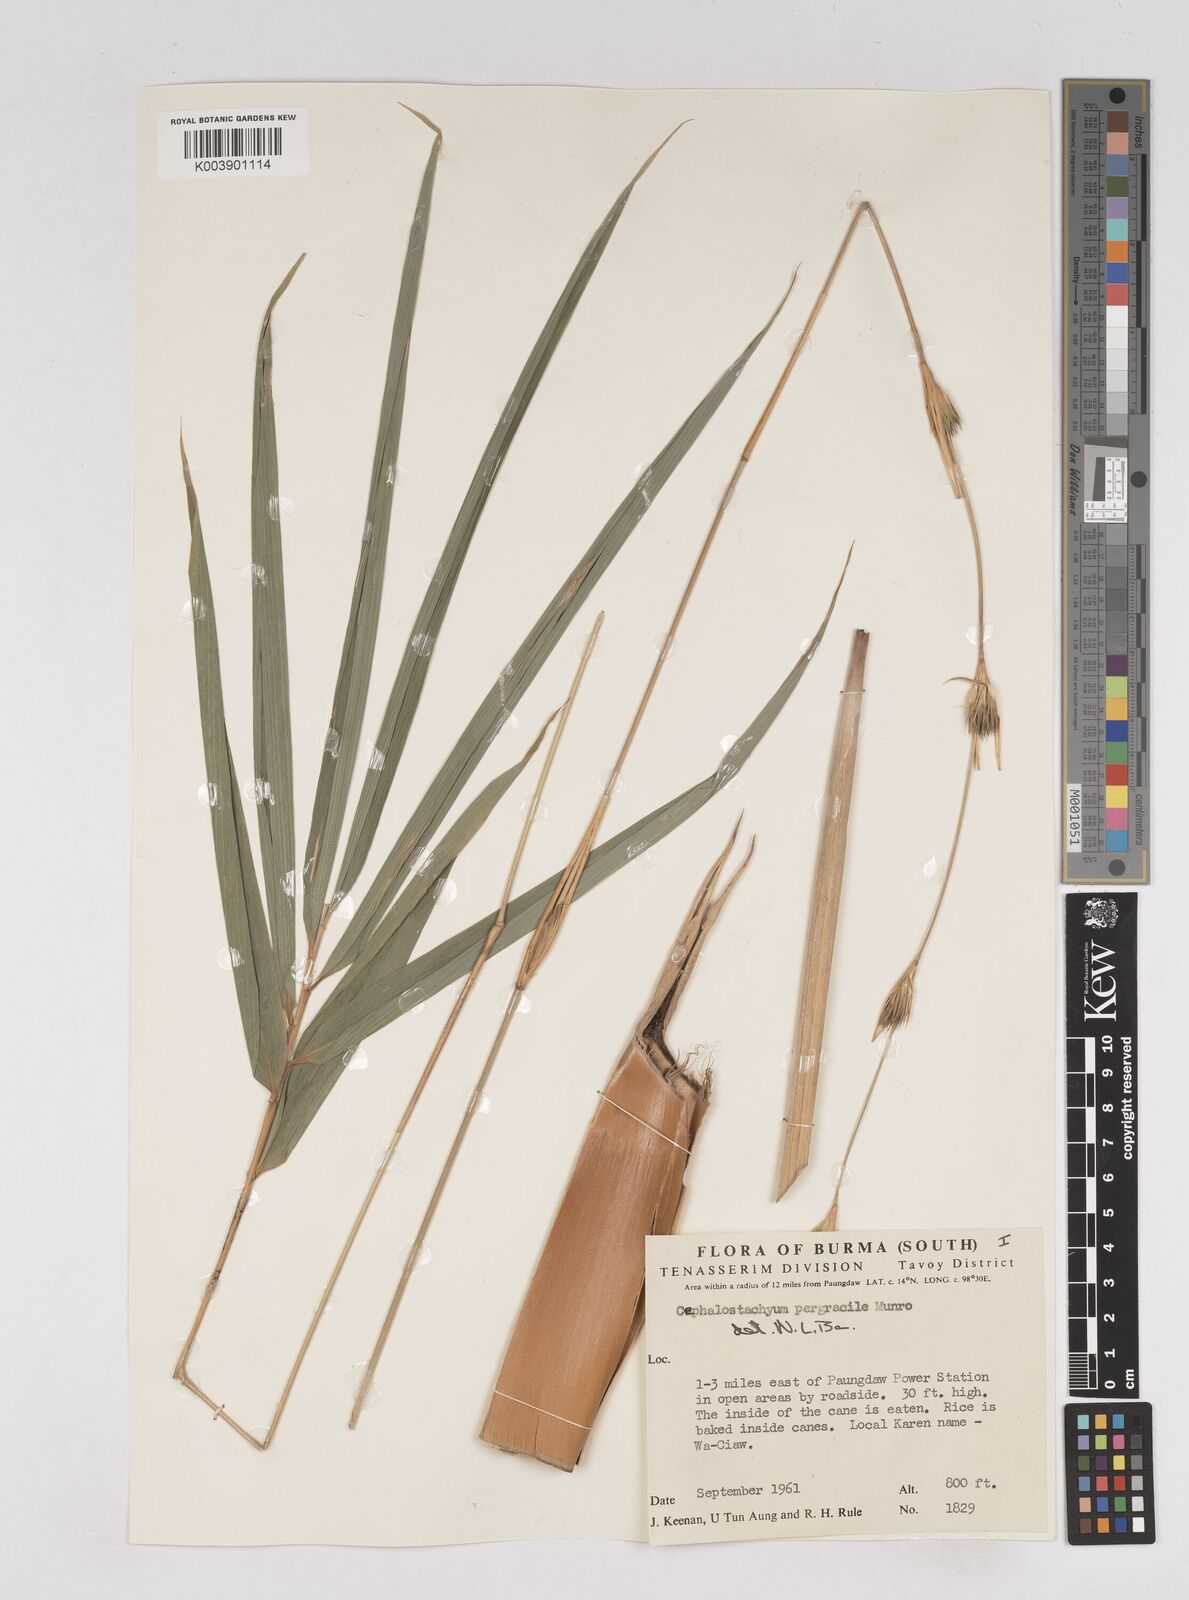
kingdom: Plantae
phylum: Tracheophyta
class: Liliopsida
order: Poales
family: Poaceae
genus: Schizostachyum
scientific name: Schizostachyum pergracile
